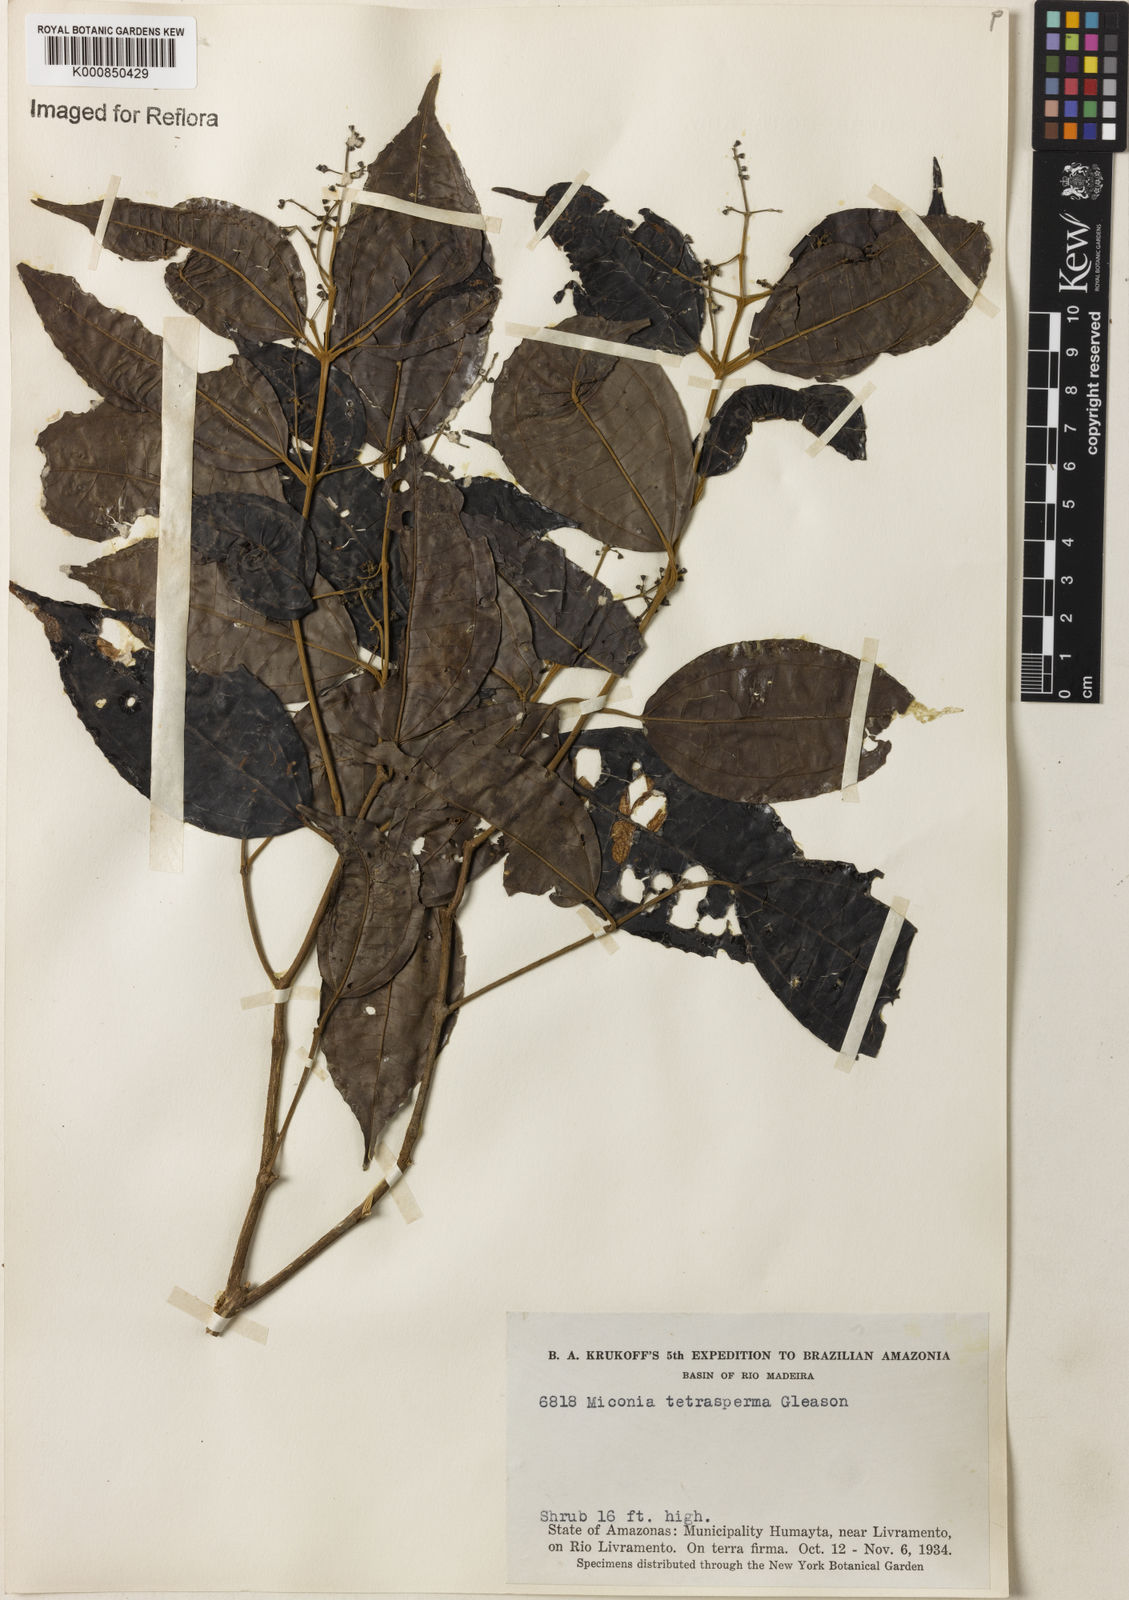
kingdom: Plantae
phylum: Tracheophyta
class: Magnoliopsida
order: Myrtales
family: Melastomataceae
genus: Miconia
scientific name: Miconia tetrasperma
